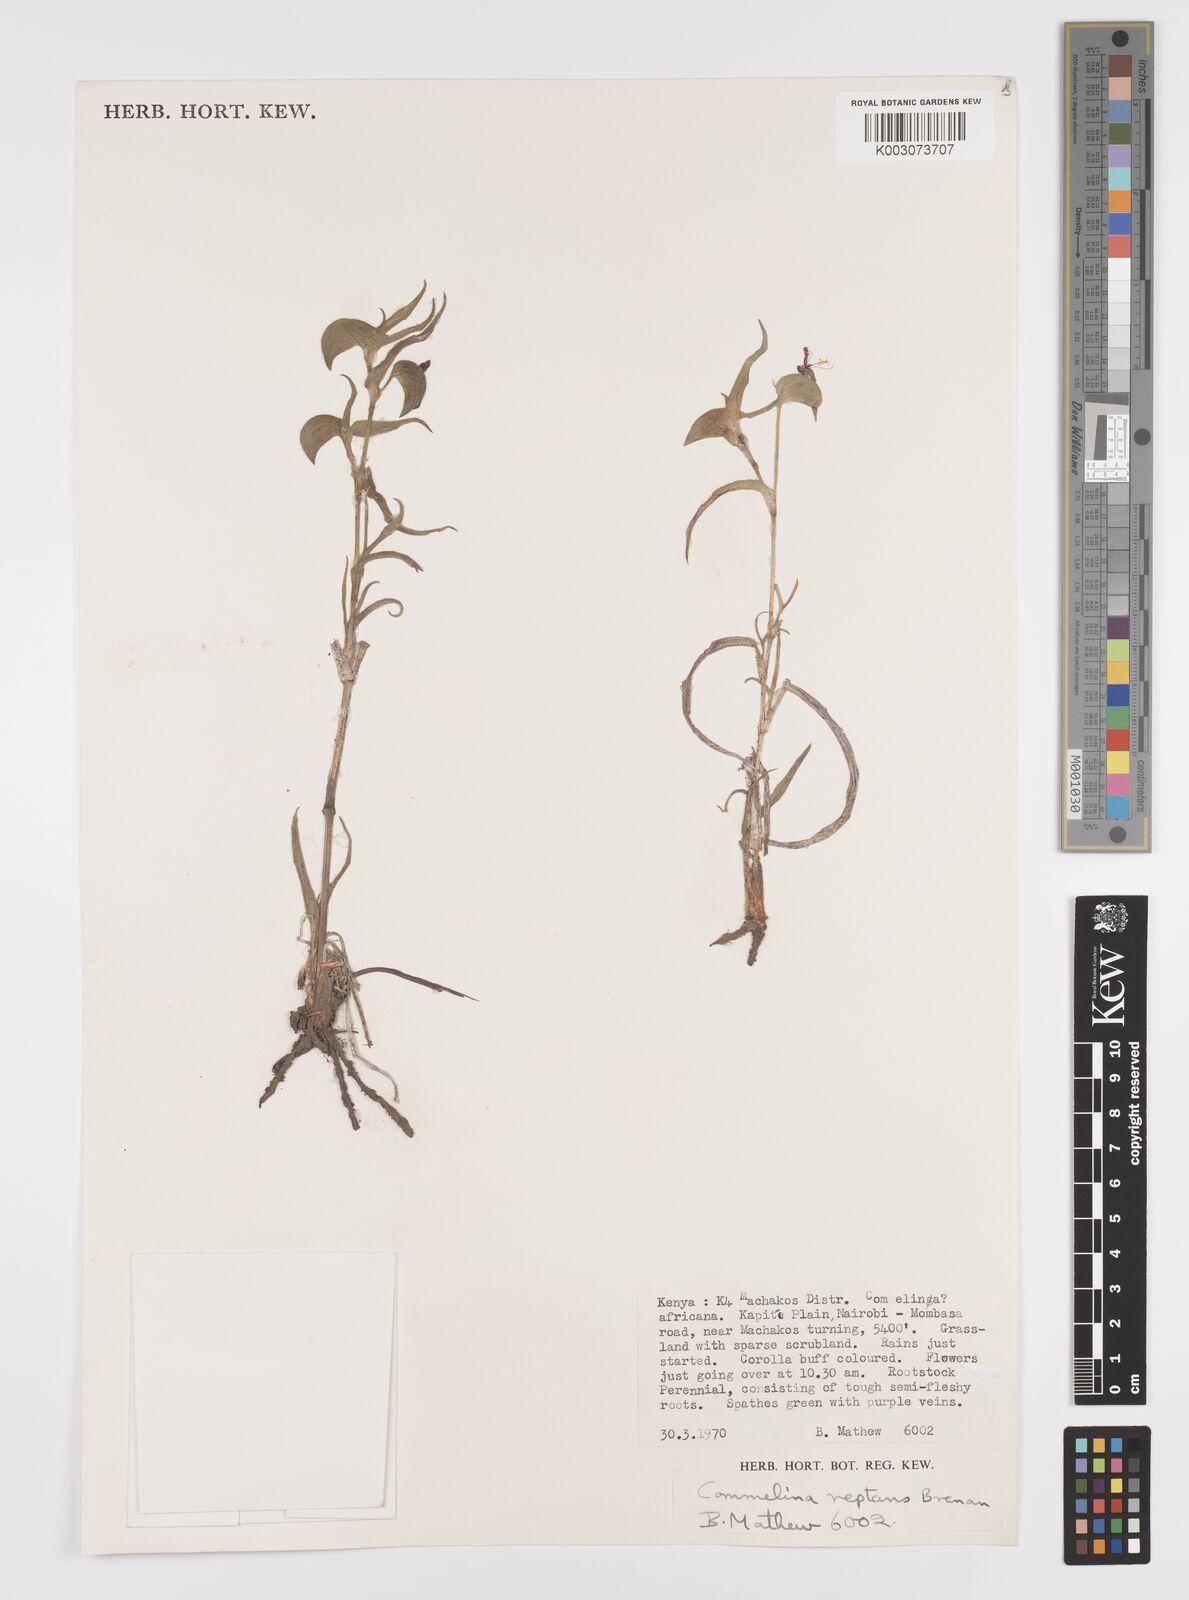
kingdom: Plantae
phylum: Tracheophyta
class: Liliopsida
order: Commelinales
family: Commelinaceae
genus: Commelina
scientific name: Commelina reptans
